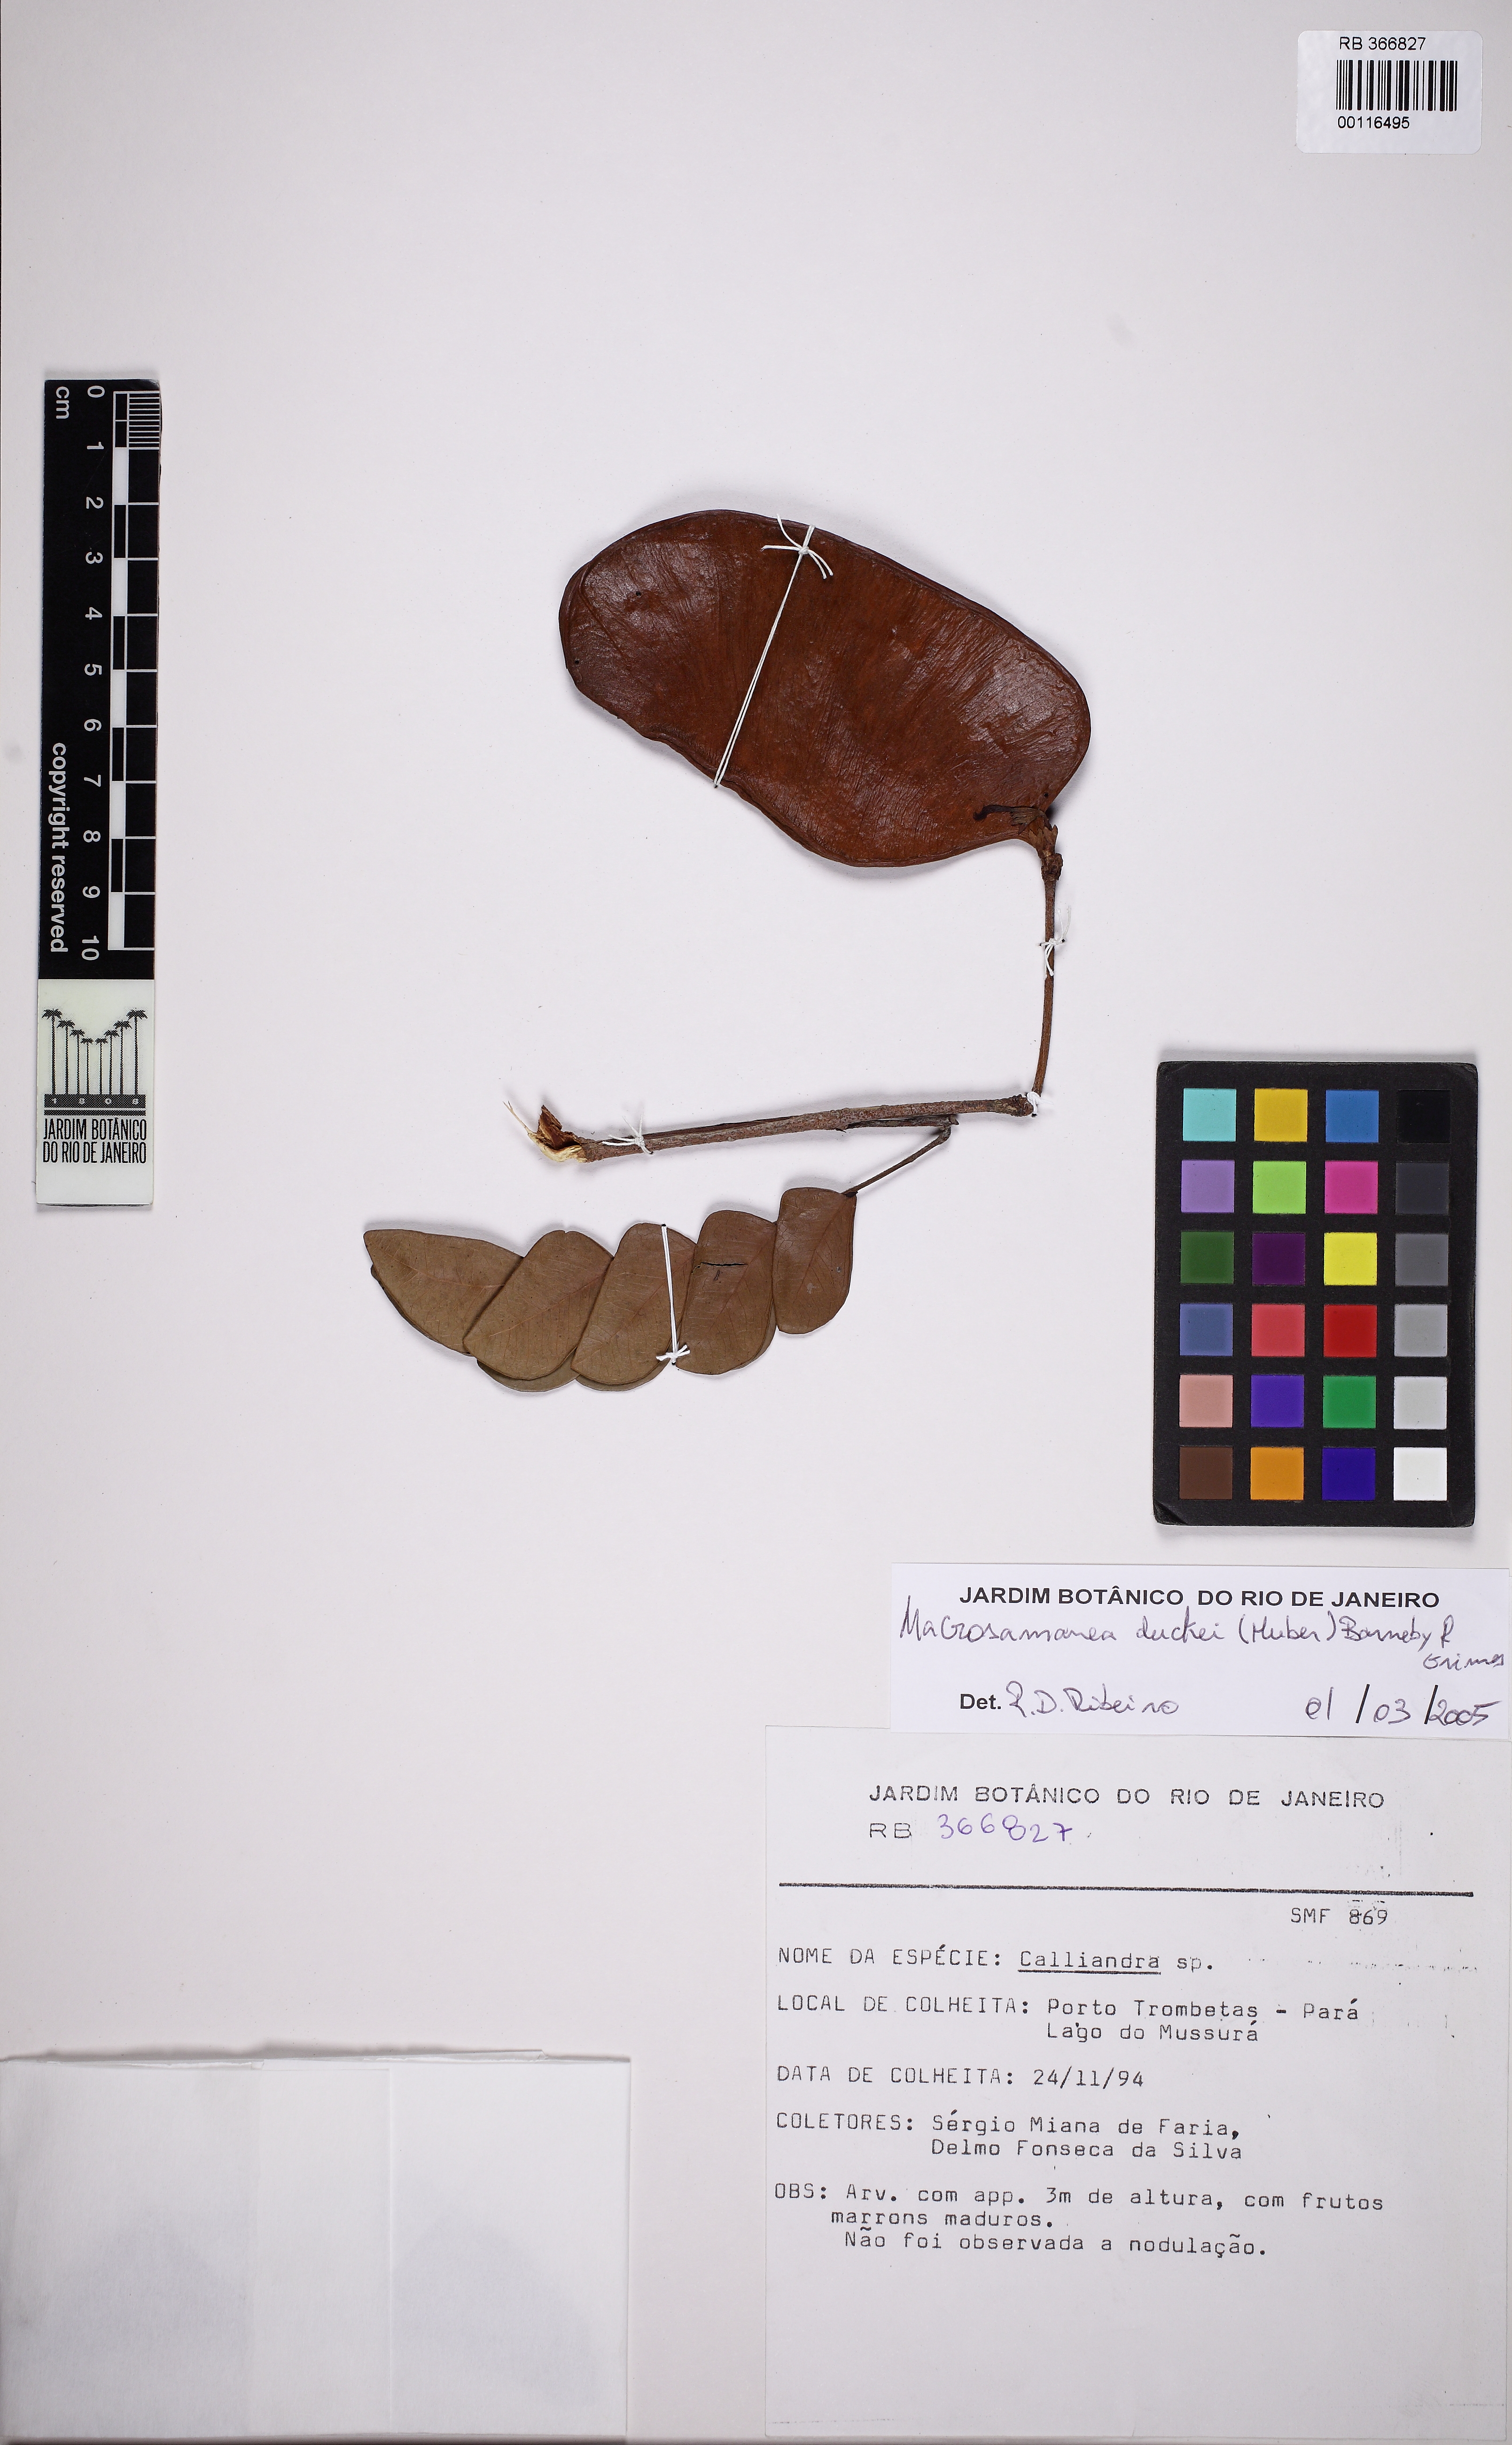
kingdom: Plantae
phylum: Tracheophyta
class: Magnoliopsida
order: Fabales
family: Fabaceae
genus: Macrosamanea
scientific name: Macrosamanea duckei
